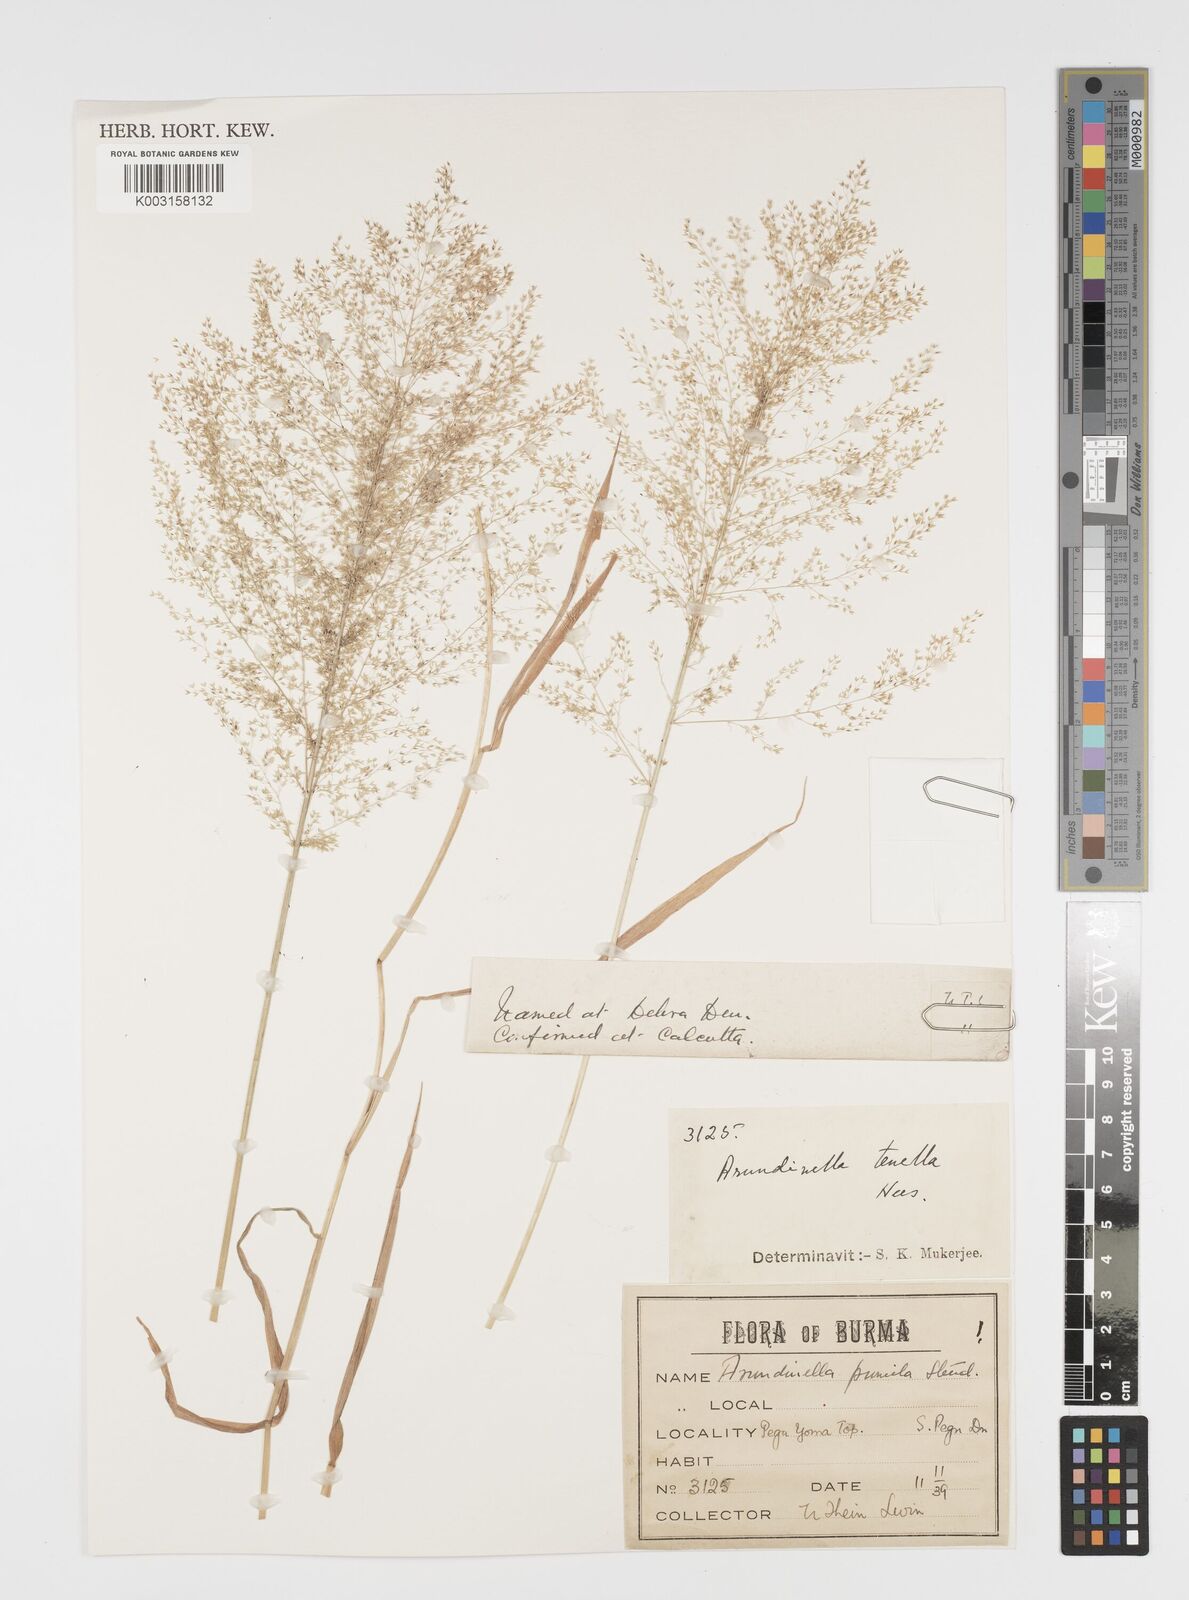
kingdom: Plantae
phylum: Tracheophyta
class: Liliopsida
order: Poales
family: Poaceae
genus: Arundinella
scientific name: Arundinella pumila
